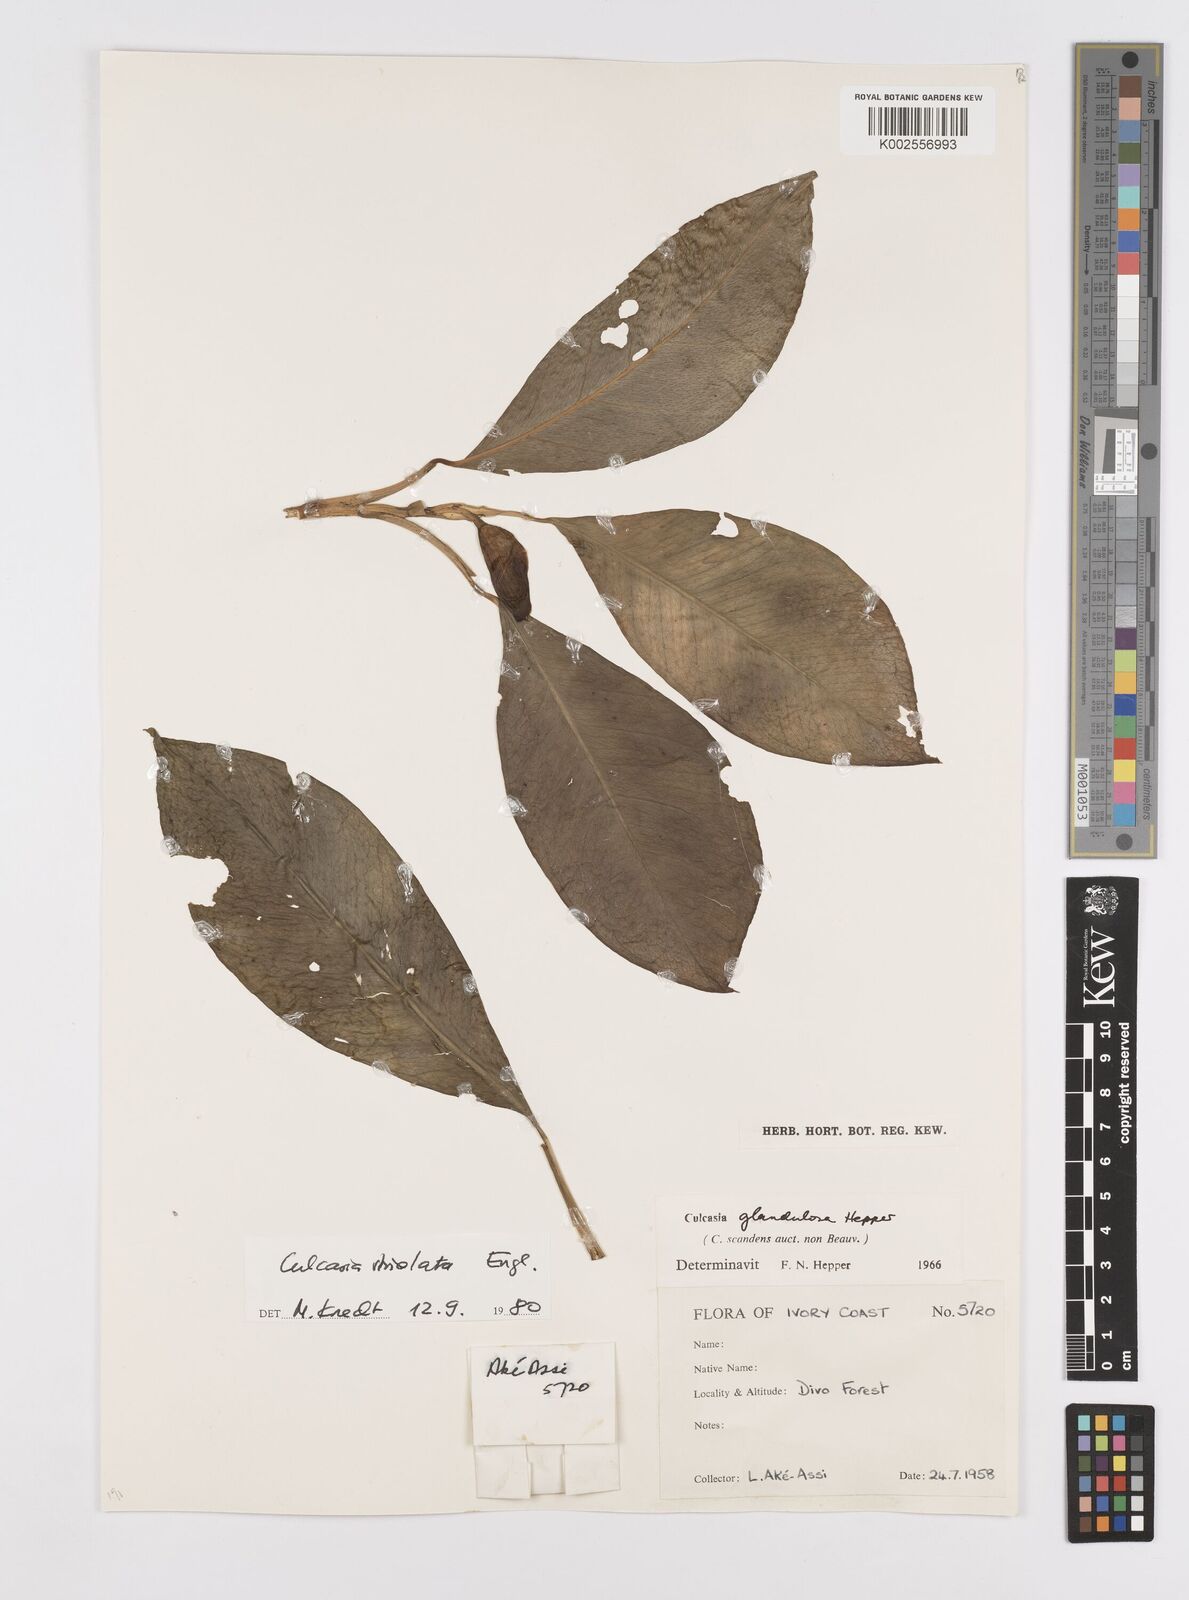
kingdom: Plantae
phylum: Tracheophyta
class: Liliopsida
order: Alismatales
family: Araceae
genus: Culcasia
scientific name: Culcasia striolata
